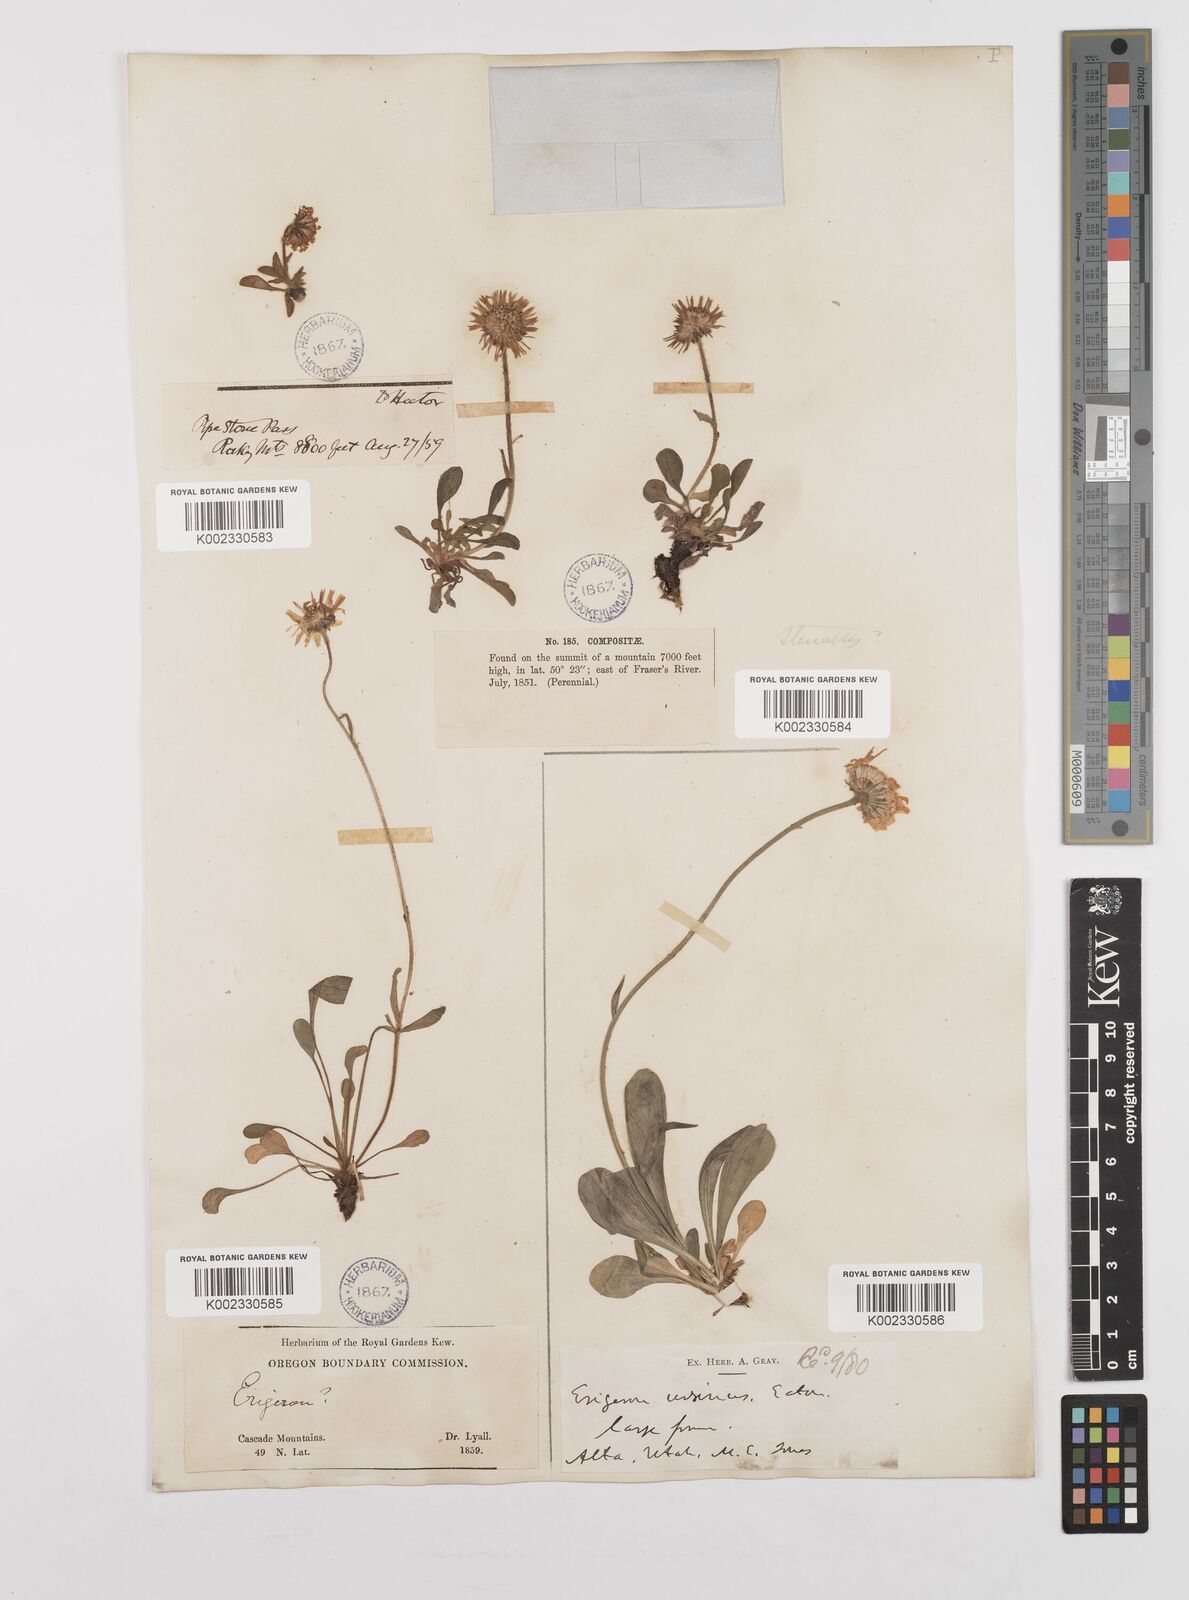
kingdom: Plantae
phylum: Tracheophyta
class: Magnoliopsida
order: Asterales
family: Asteraceae
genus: Erigeron
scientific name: Erigeron ursinus
